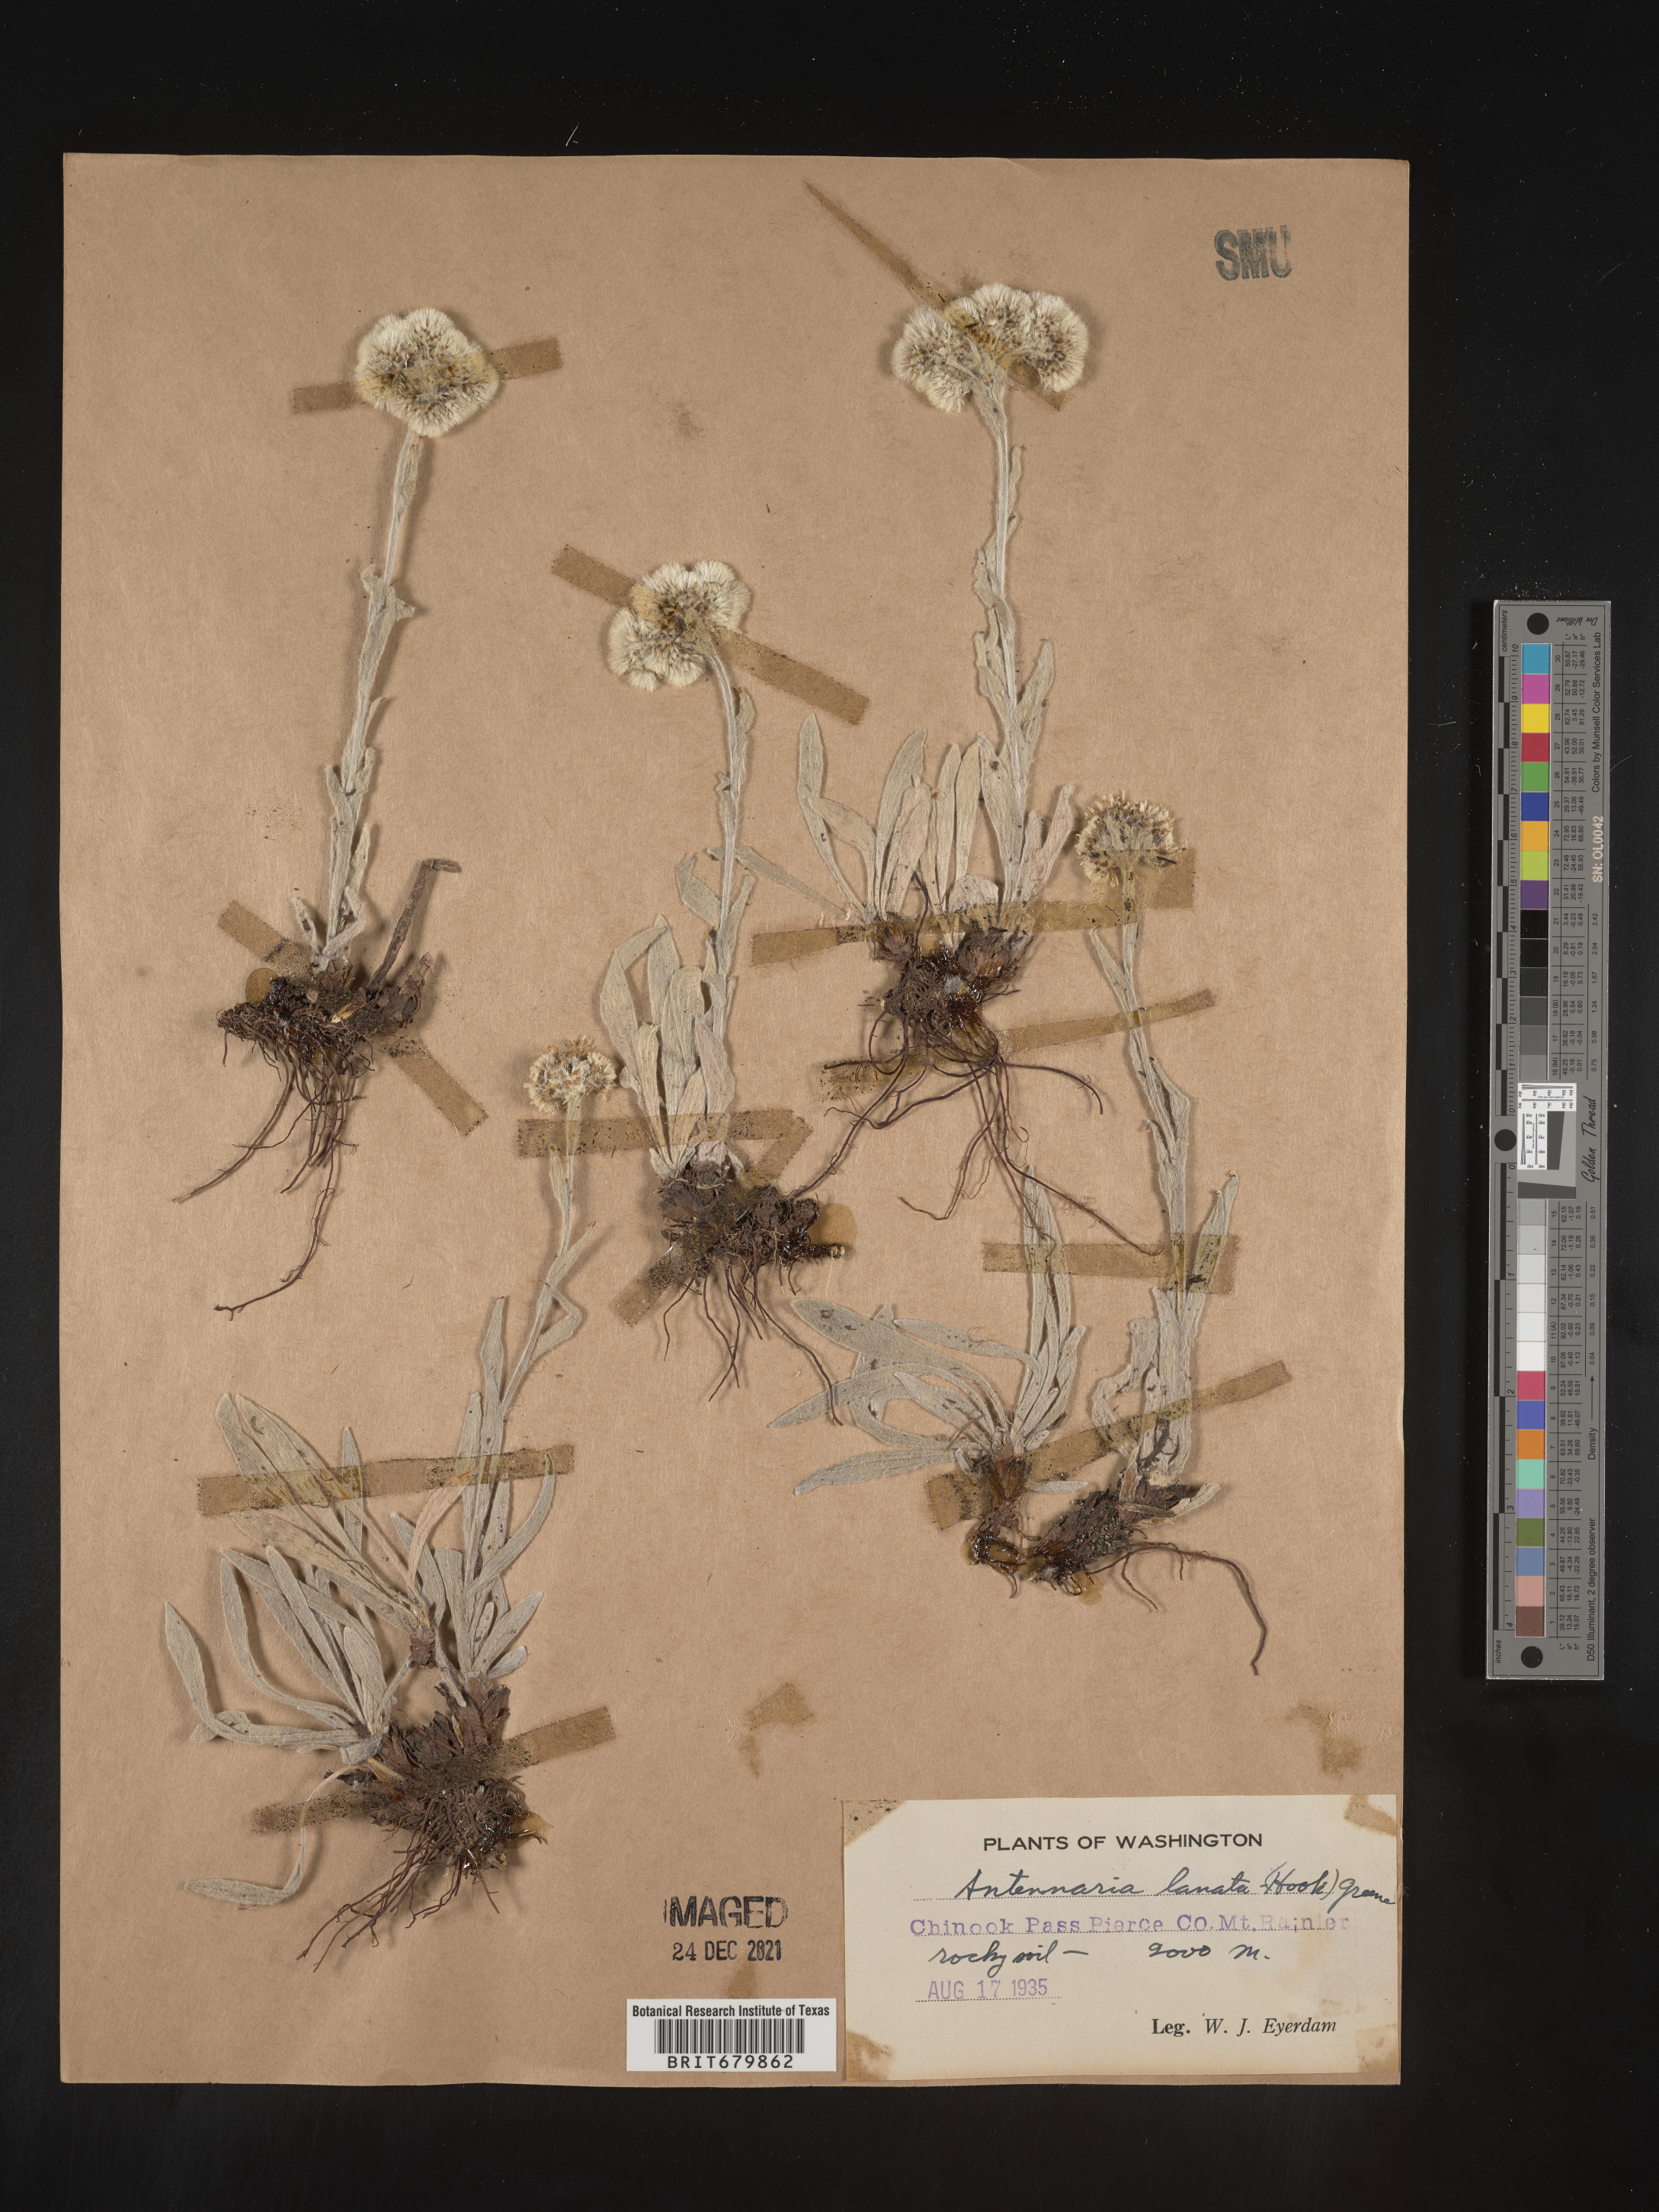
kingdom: Plantae
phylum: Tracheophyta
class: Magnoliopsida
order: Asterales
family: Asteraceae
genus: Antennaria
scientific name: Antennaria lanata
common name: Woolly pussytoes
